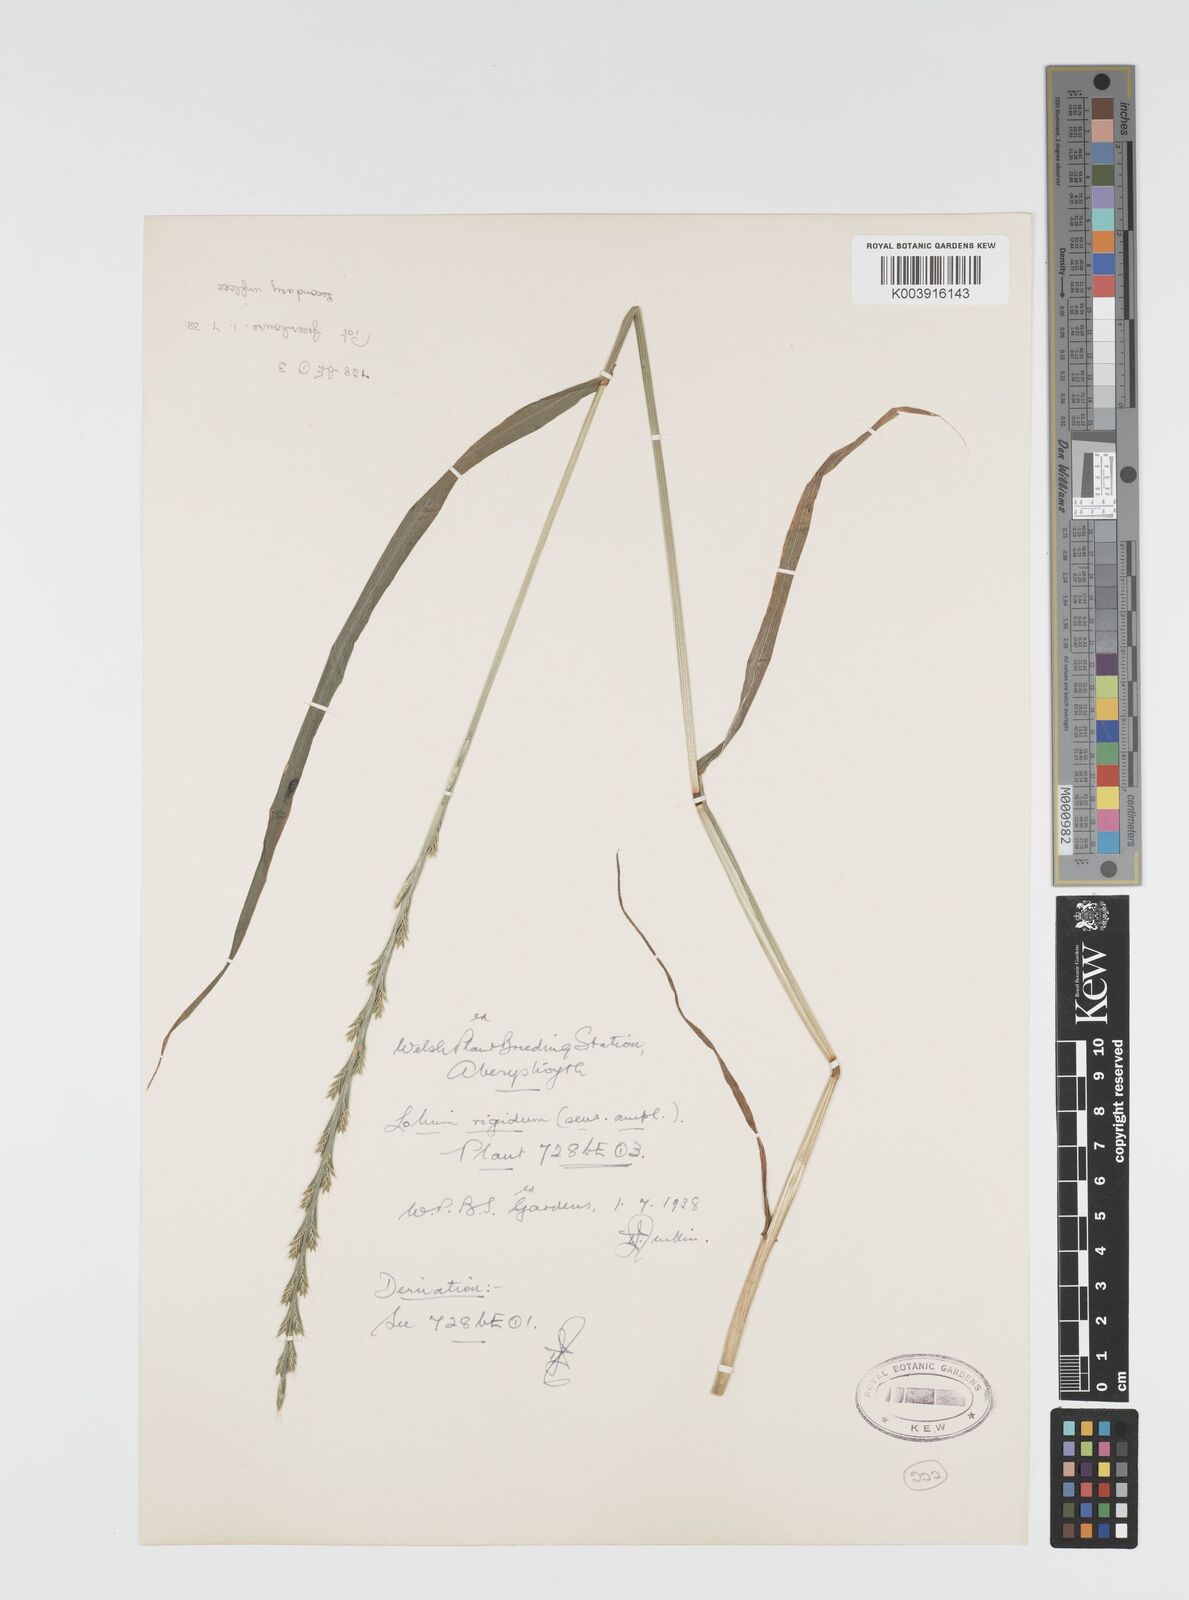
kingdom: Plantae
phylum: Tracheophyta
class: Liliopsida
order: Poales
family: Poaceae
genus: Lolium
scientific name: Lolium rigidum
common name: Wimmera ryegrass
